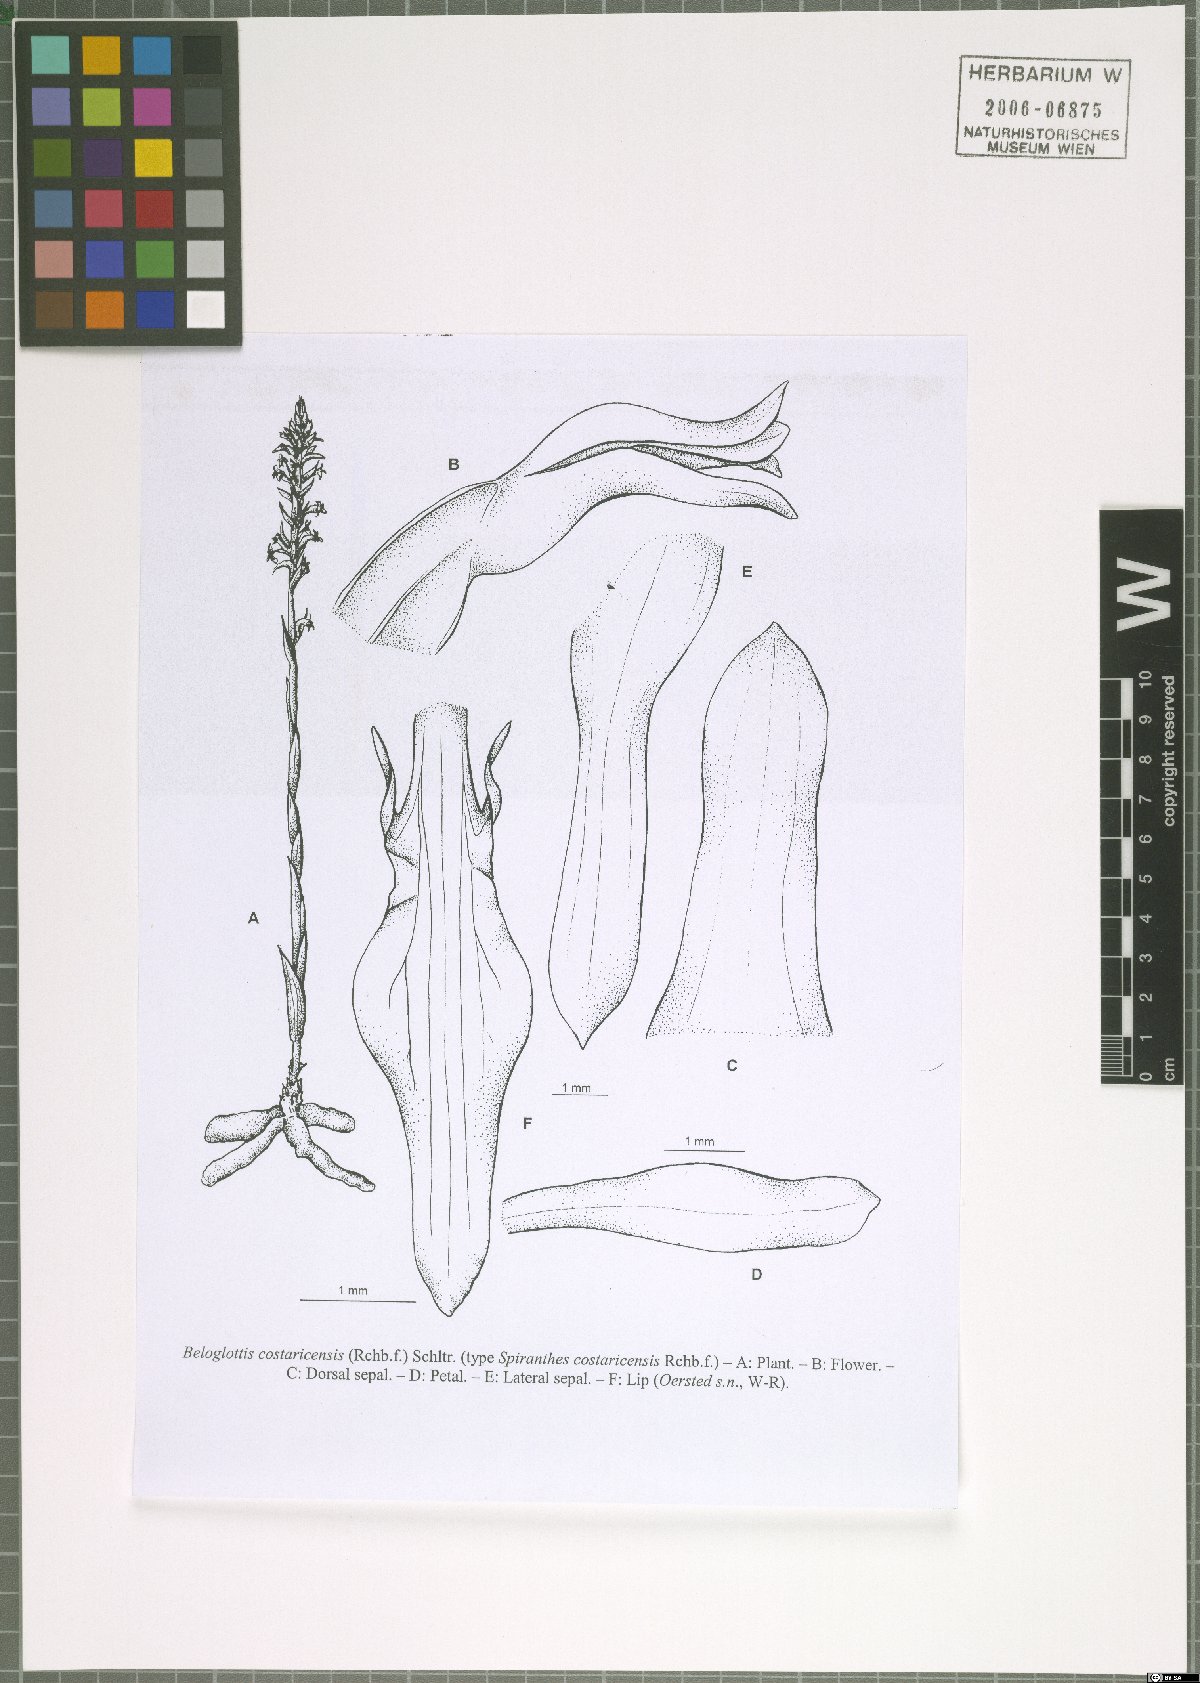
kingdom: Plantae
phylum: Tracheophyta
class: Liliopsida
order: Asparagales
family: Orchidaceae
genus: Beloglottis
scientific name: Beloglottis costaricensis
